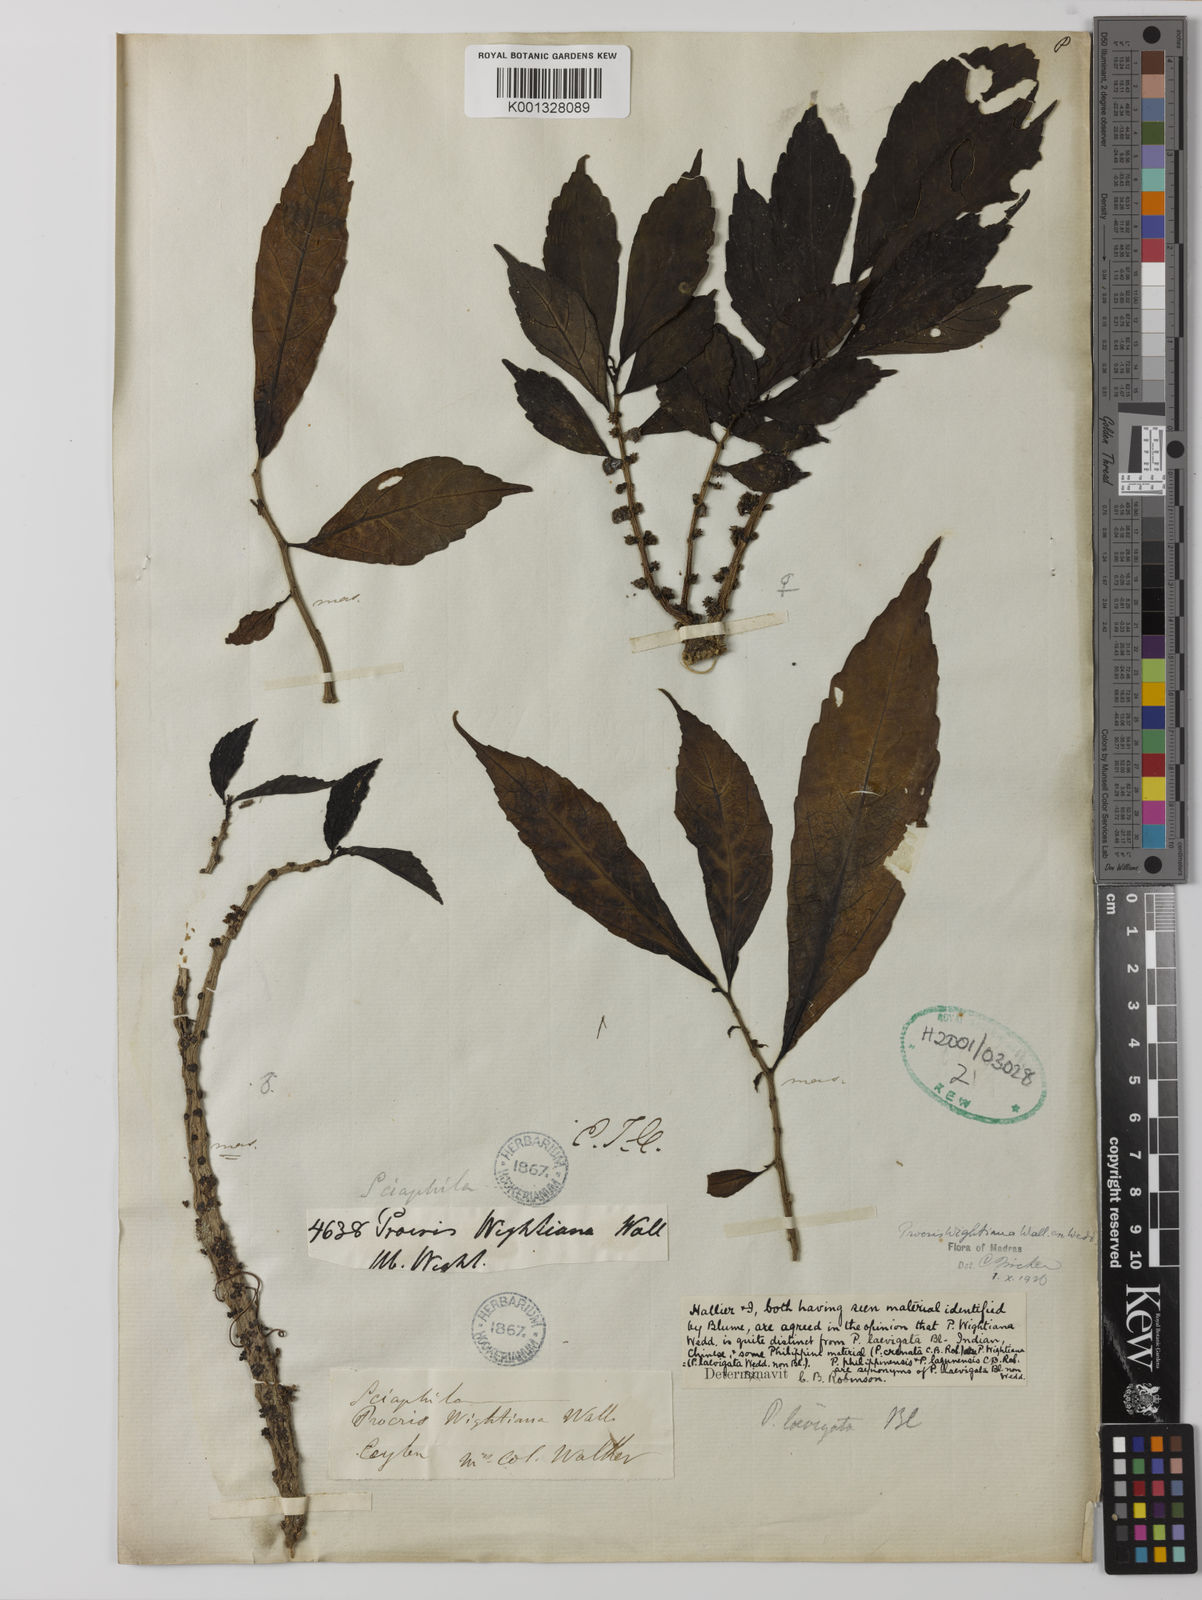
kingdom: Plantae
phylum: Tracheophyta
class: Magnoliopsida
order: Rosales
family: Urticaceae
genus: Procris
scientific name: Procris crenata
